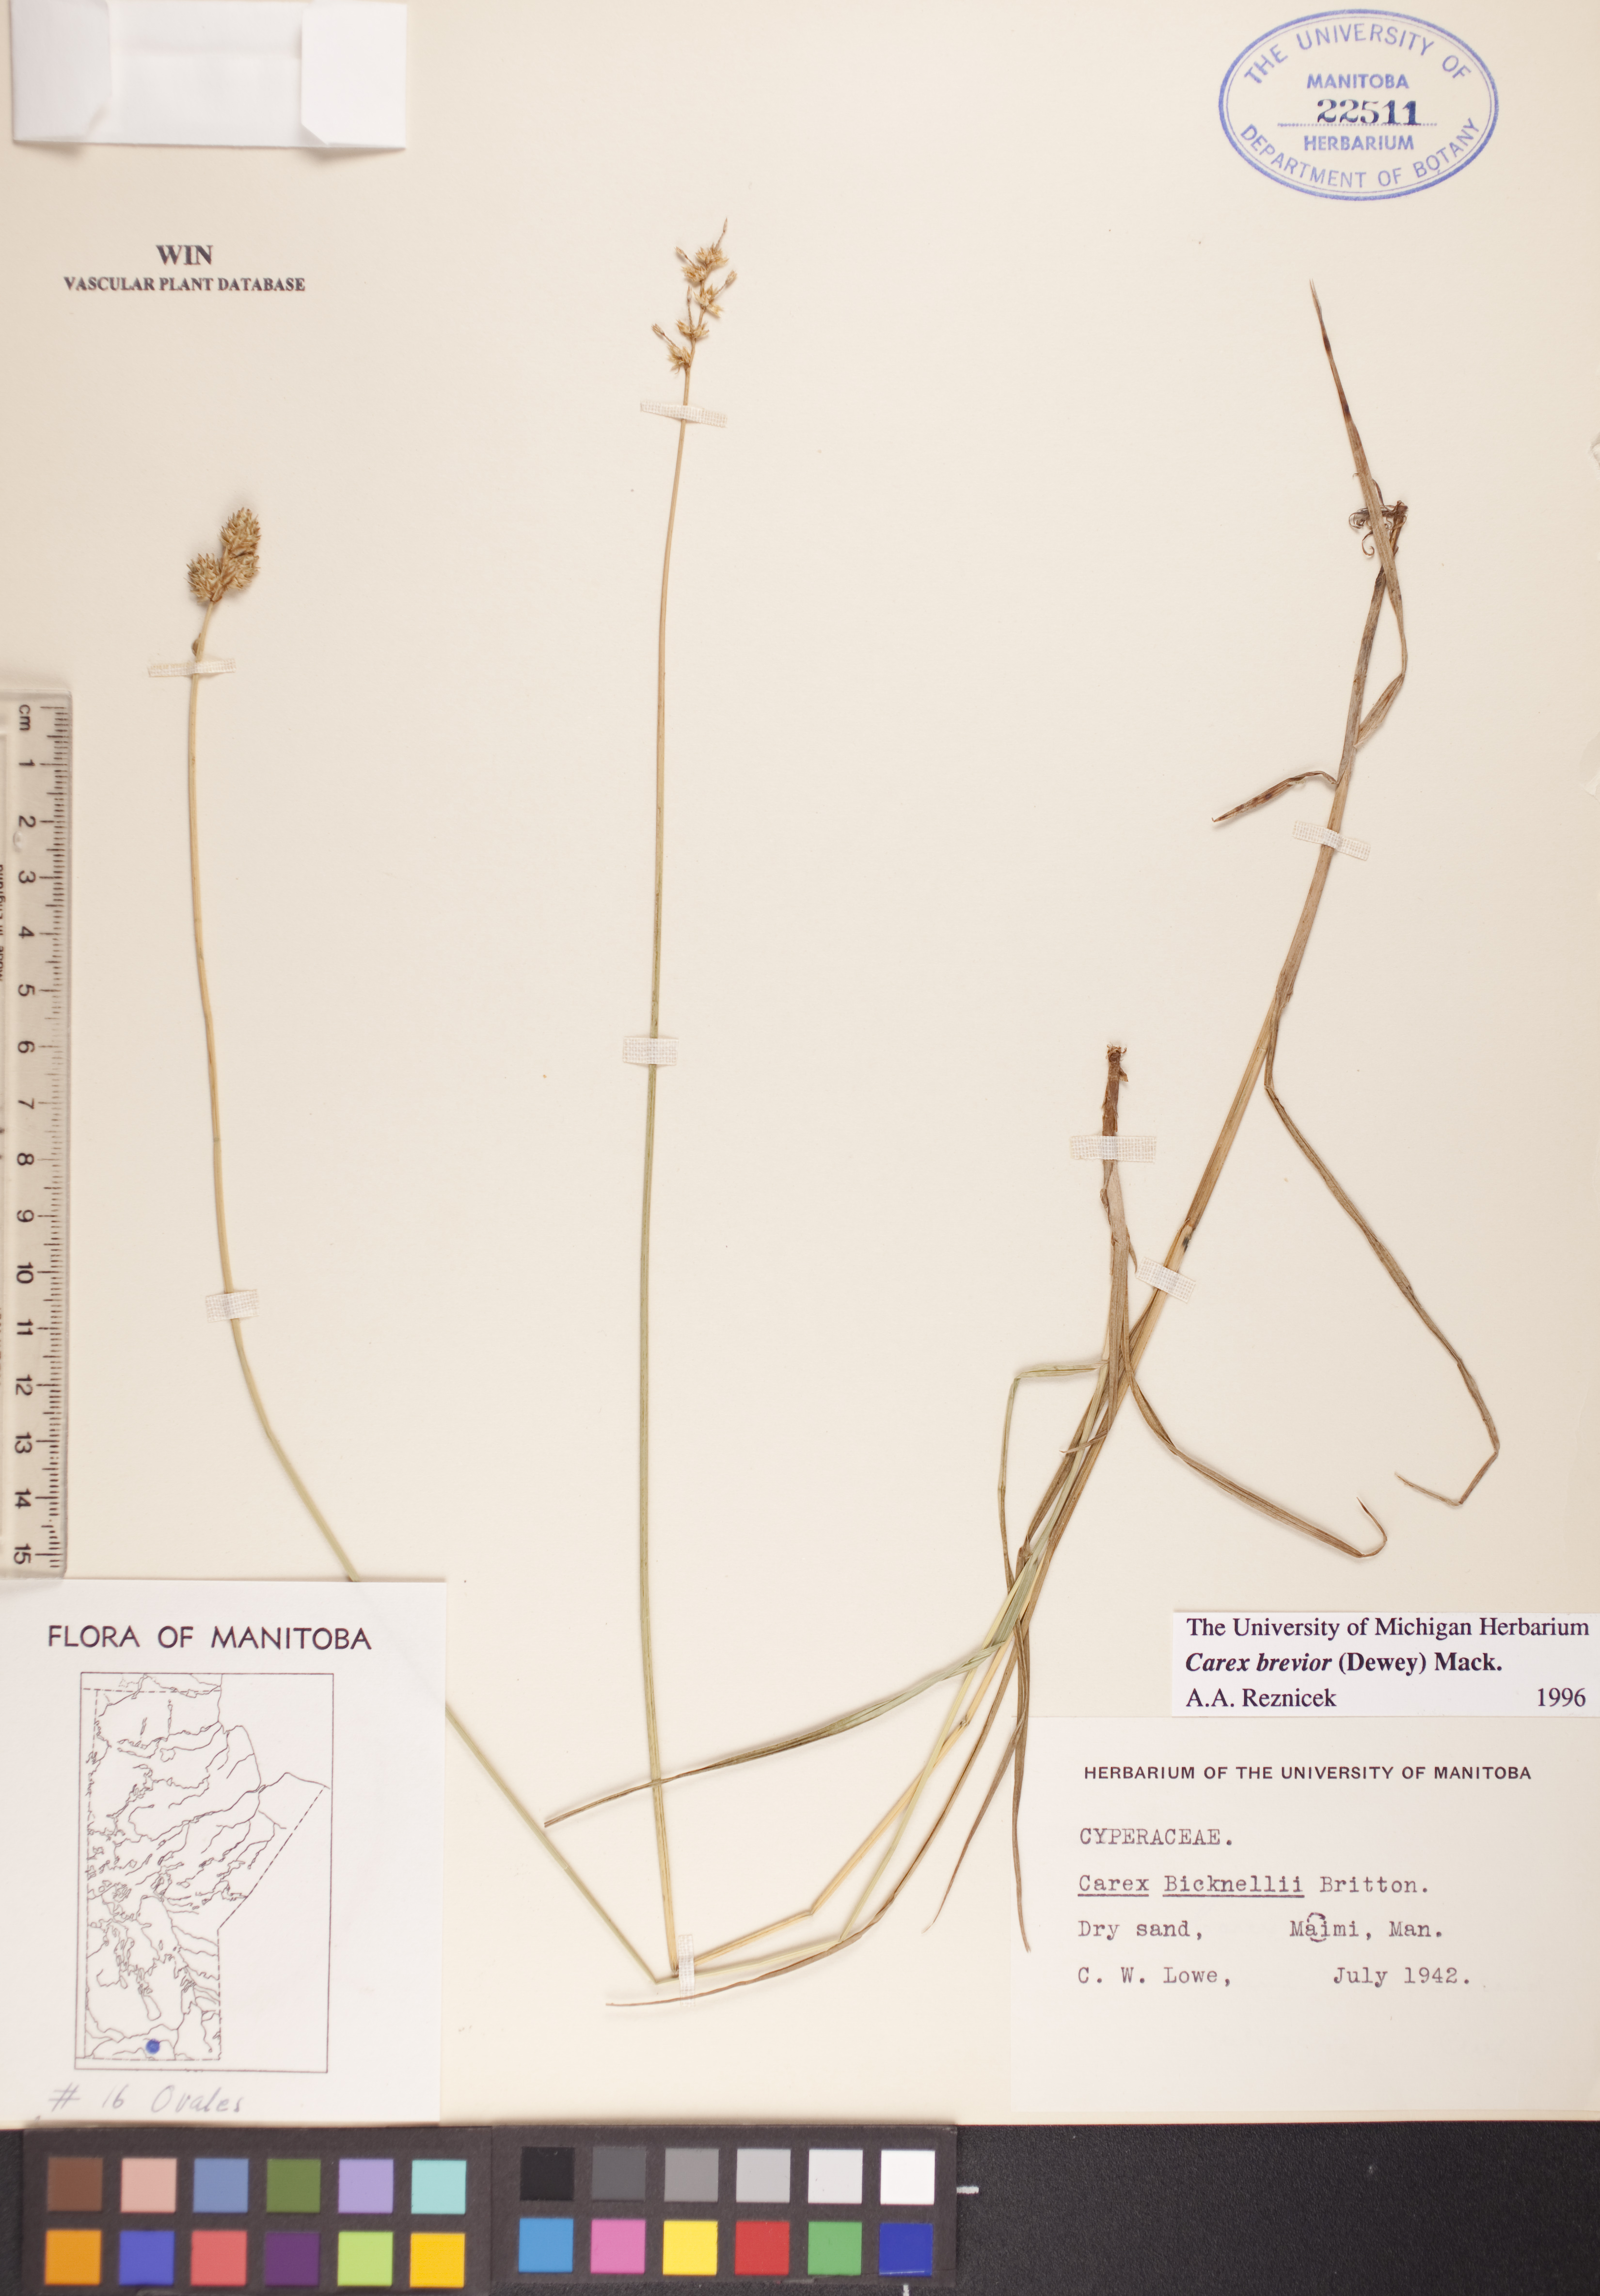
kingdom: Plantae
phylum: Tracheophyta
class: Liliopsida
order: Poales
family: Cyperaceae
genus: Carex
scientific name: Carex brevior
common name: Brevior sedge
